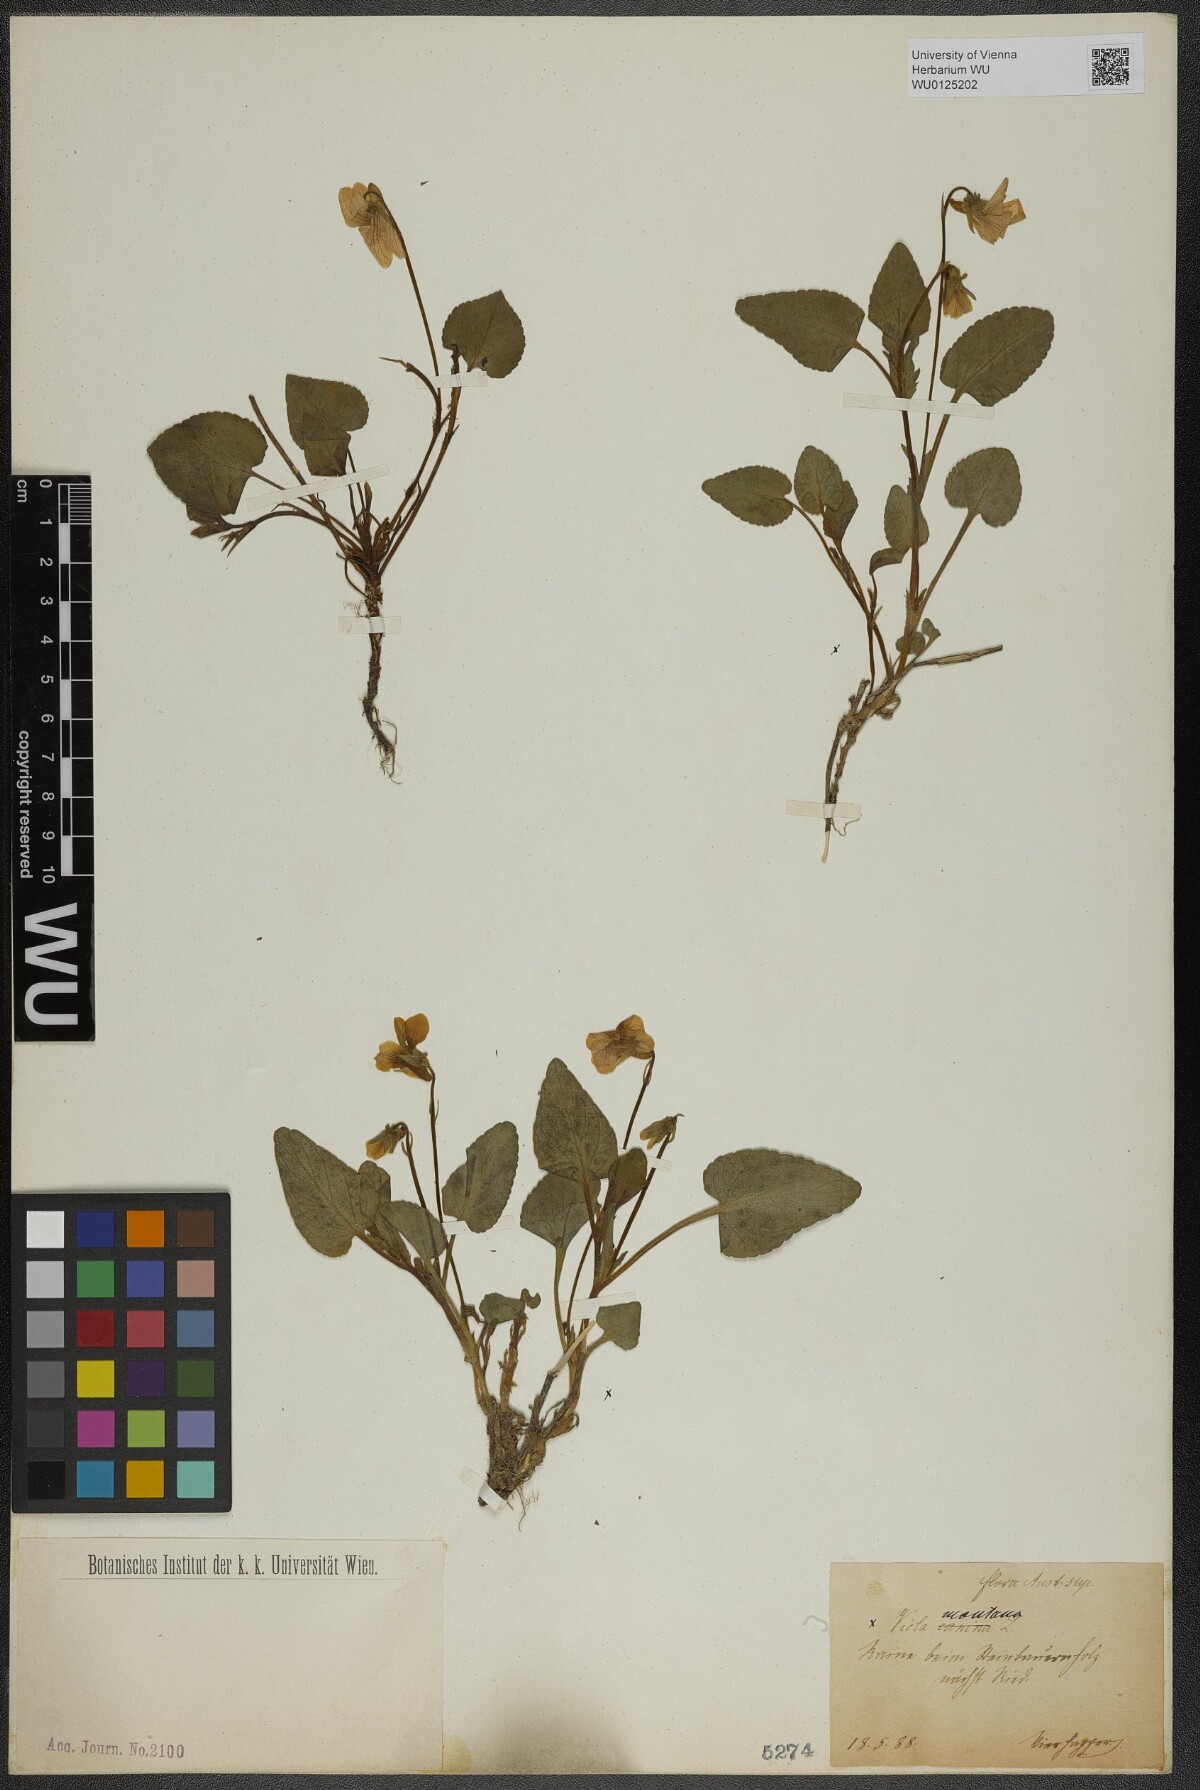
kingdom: Plantae
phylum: Tracheophyta
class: Magnoliopsida
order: Malpighiales
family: Violaceae
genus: Viola
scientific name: Viola ruppii
